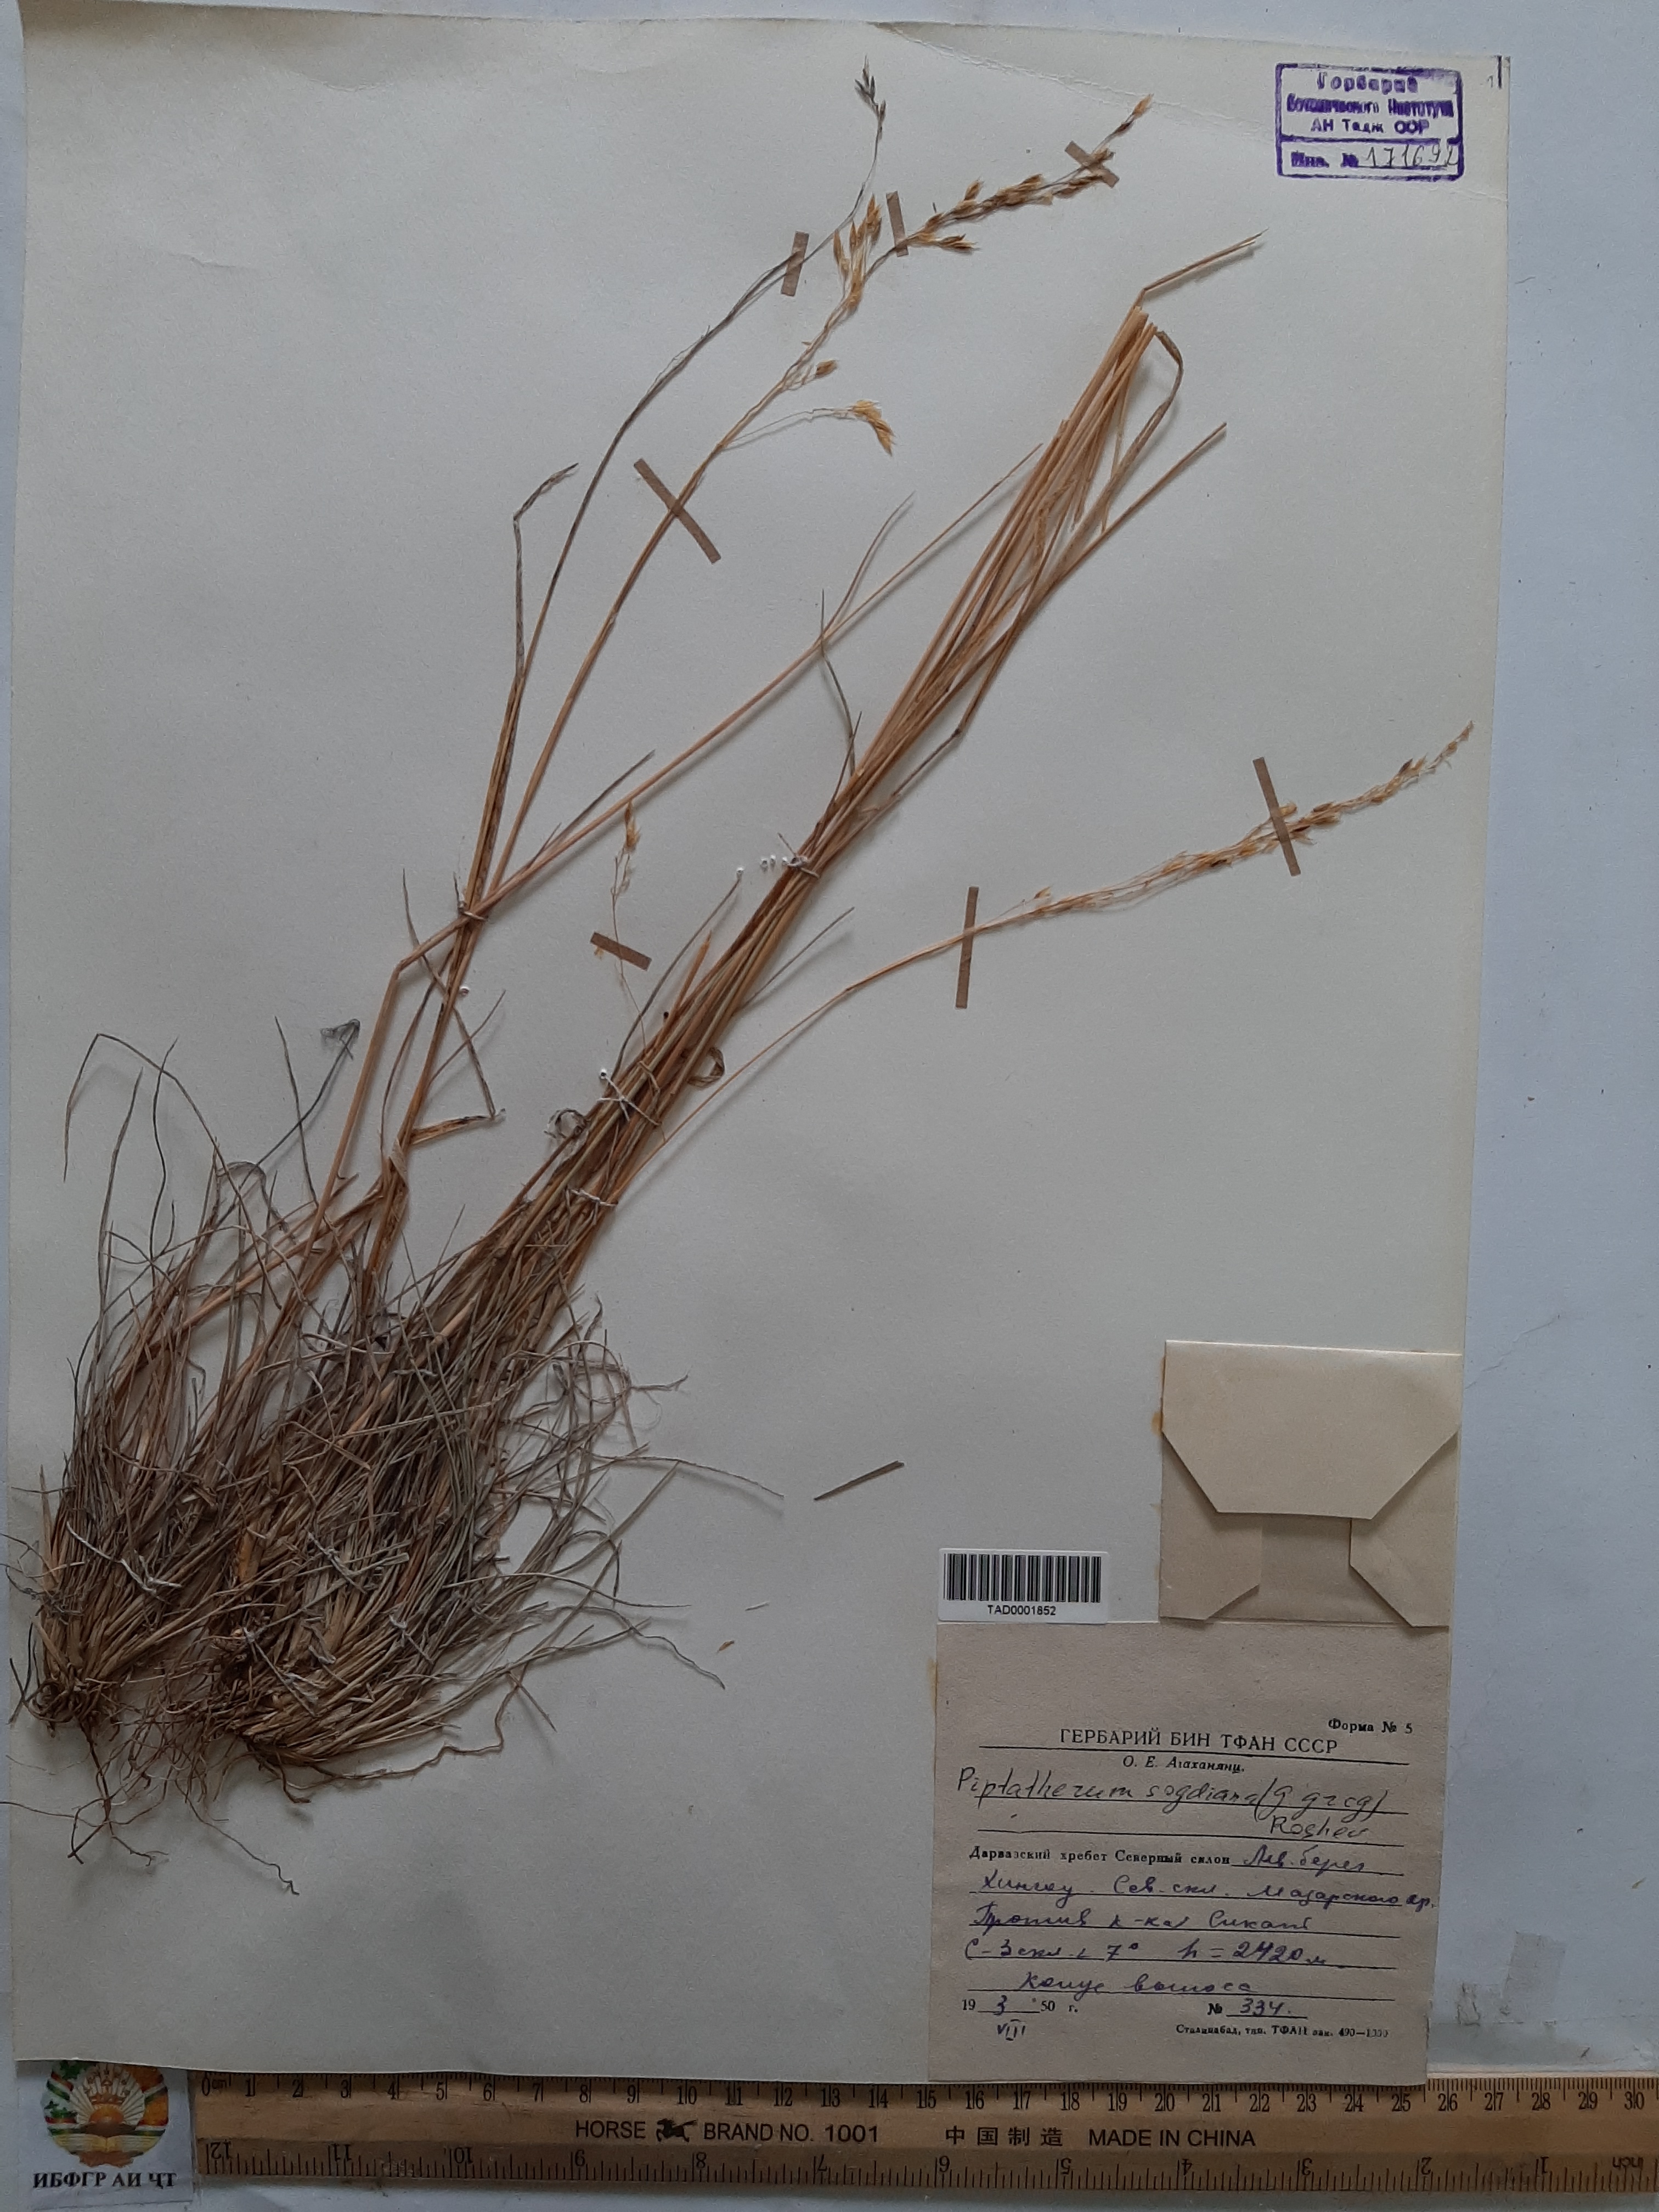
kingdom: Plantae
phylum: Tracheophyta
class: Liliopsida
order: Poales
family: Poaceae
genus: Piptatherum
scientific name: Piptatherum sogdianum
